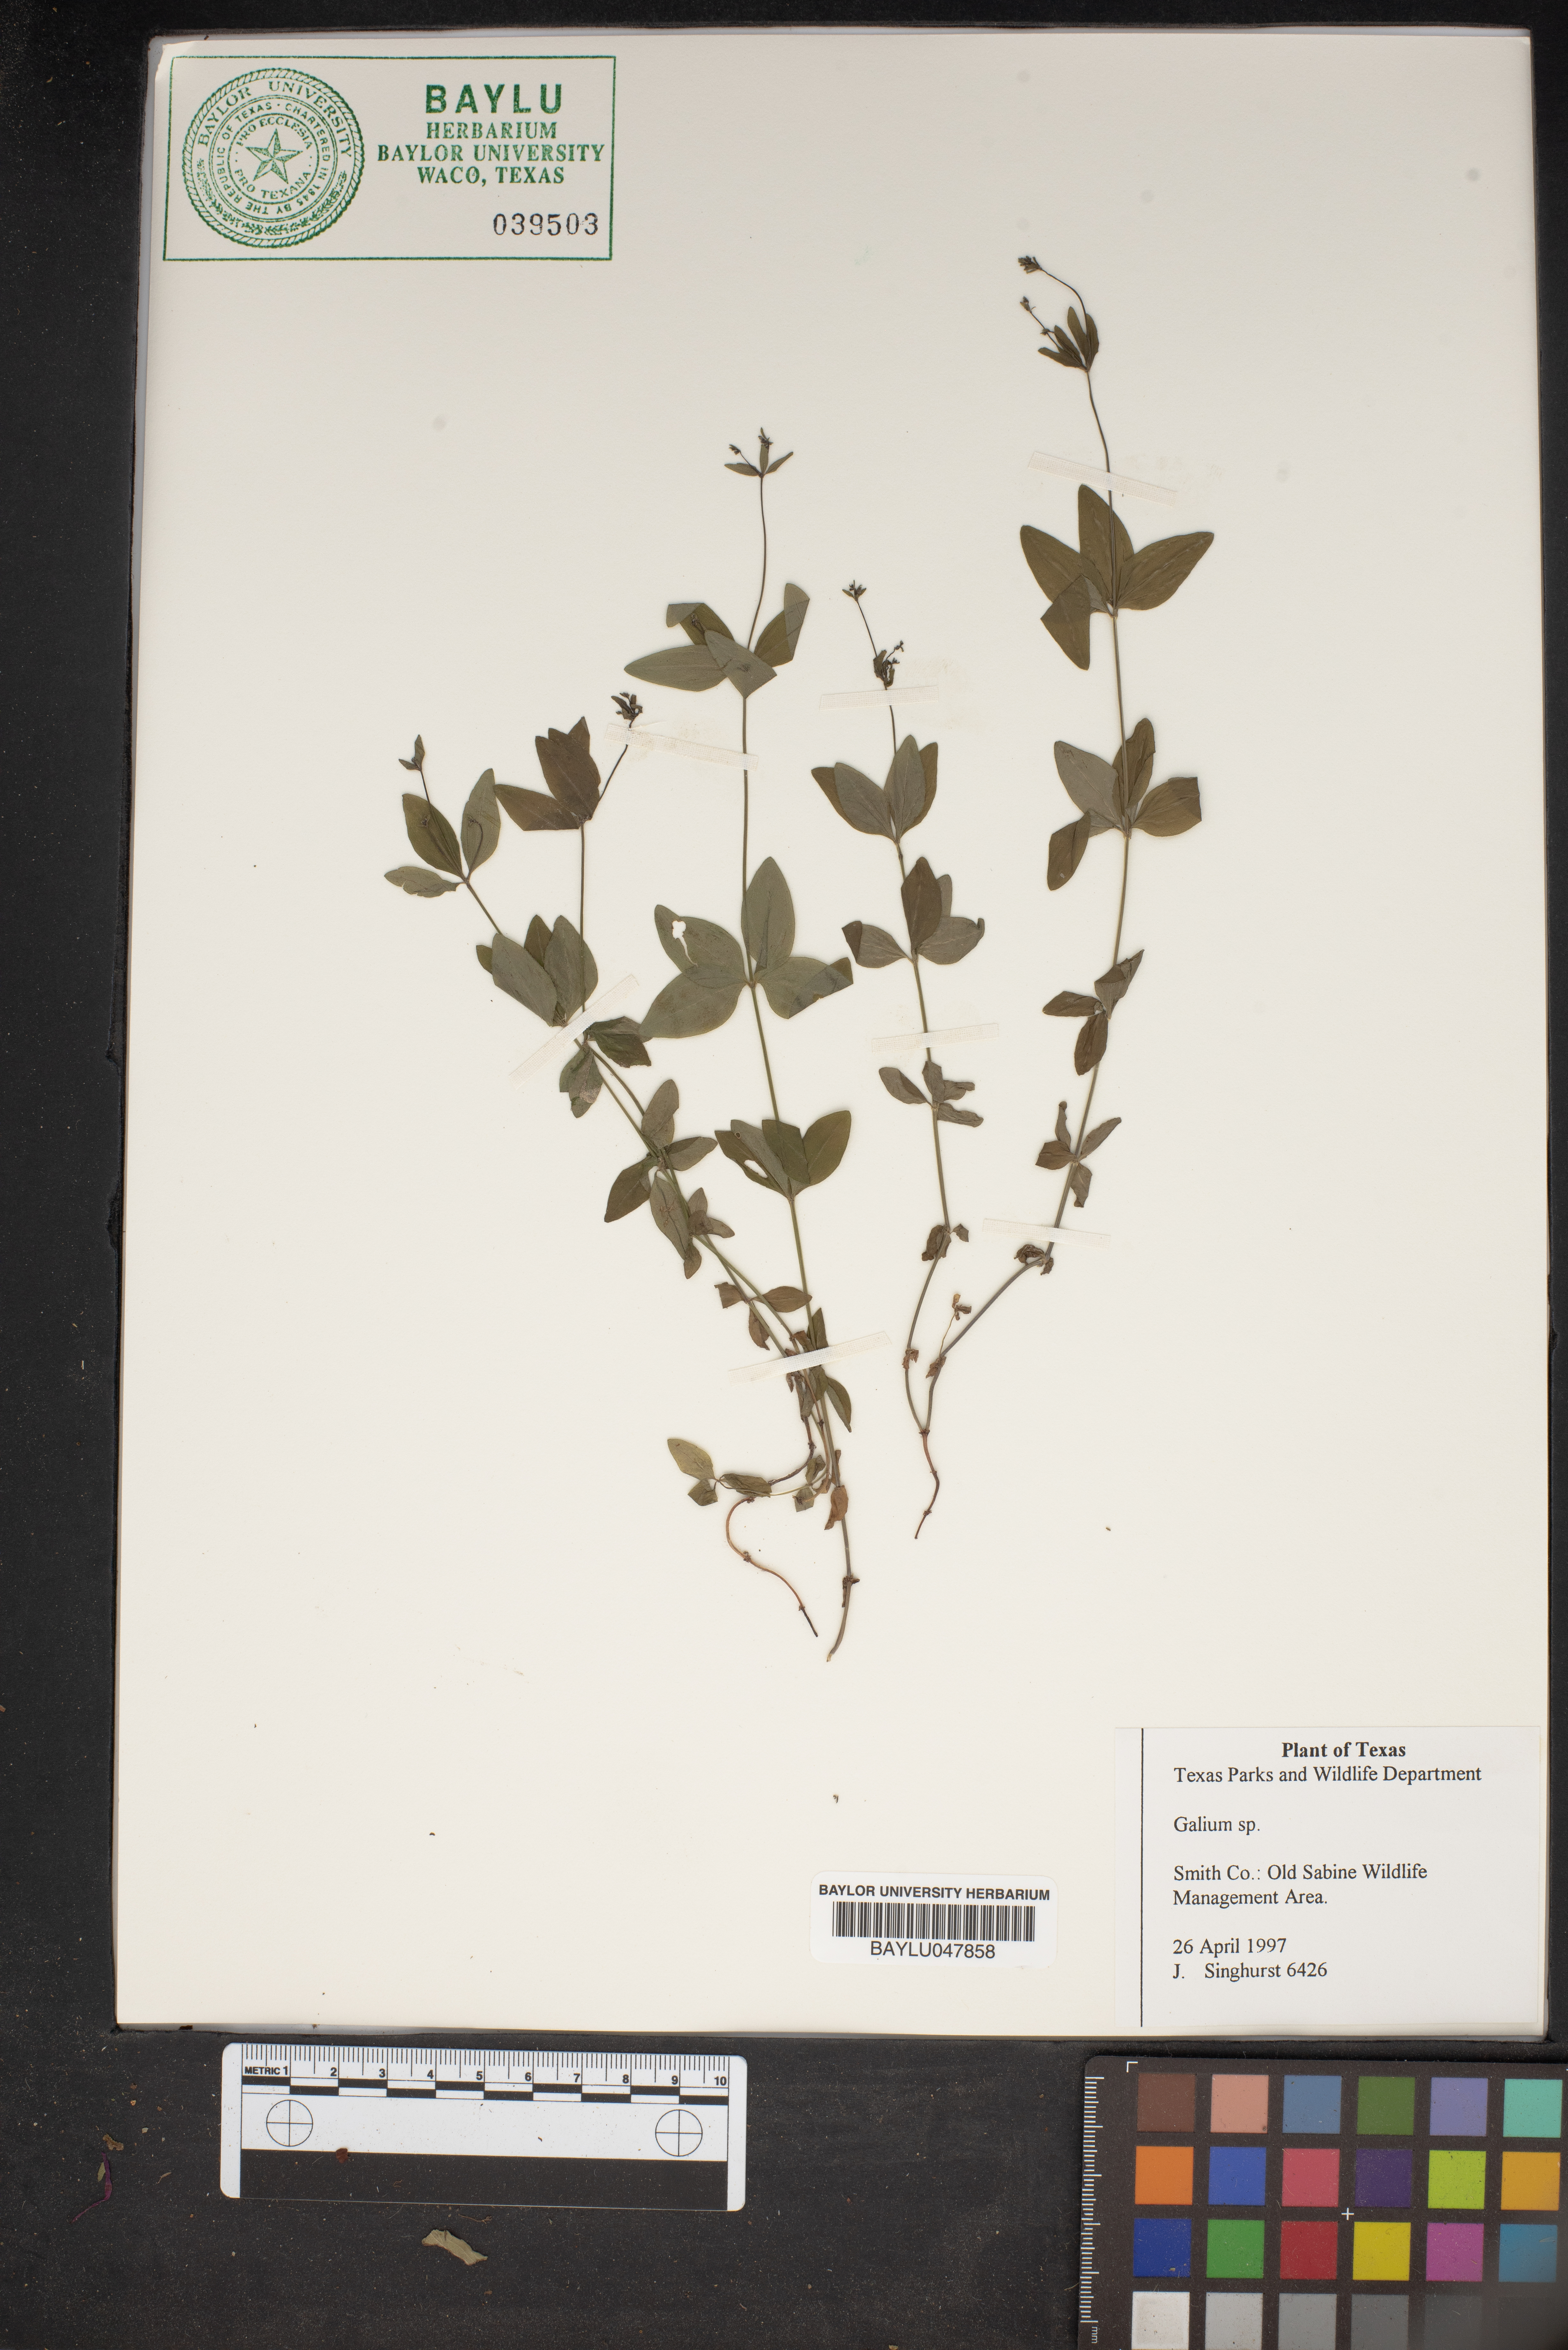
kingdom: Plantae
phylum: Tracheophyta
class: Magnoliopsida
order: Gentianales
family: Rubiaceae
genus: Galium
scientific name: Galium
